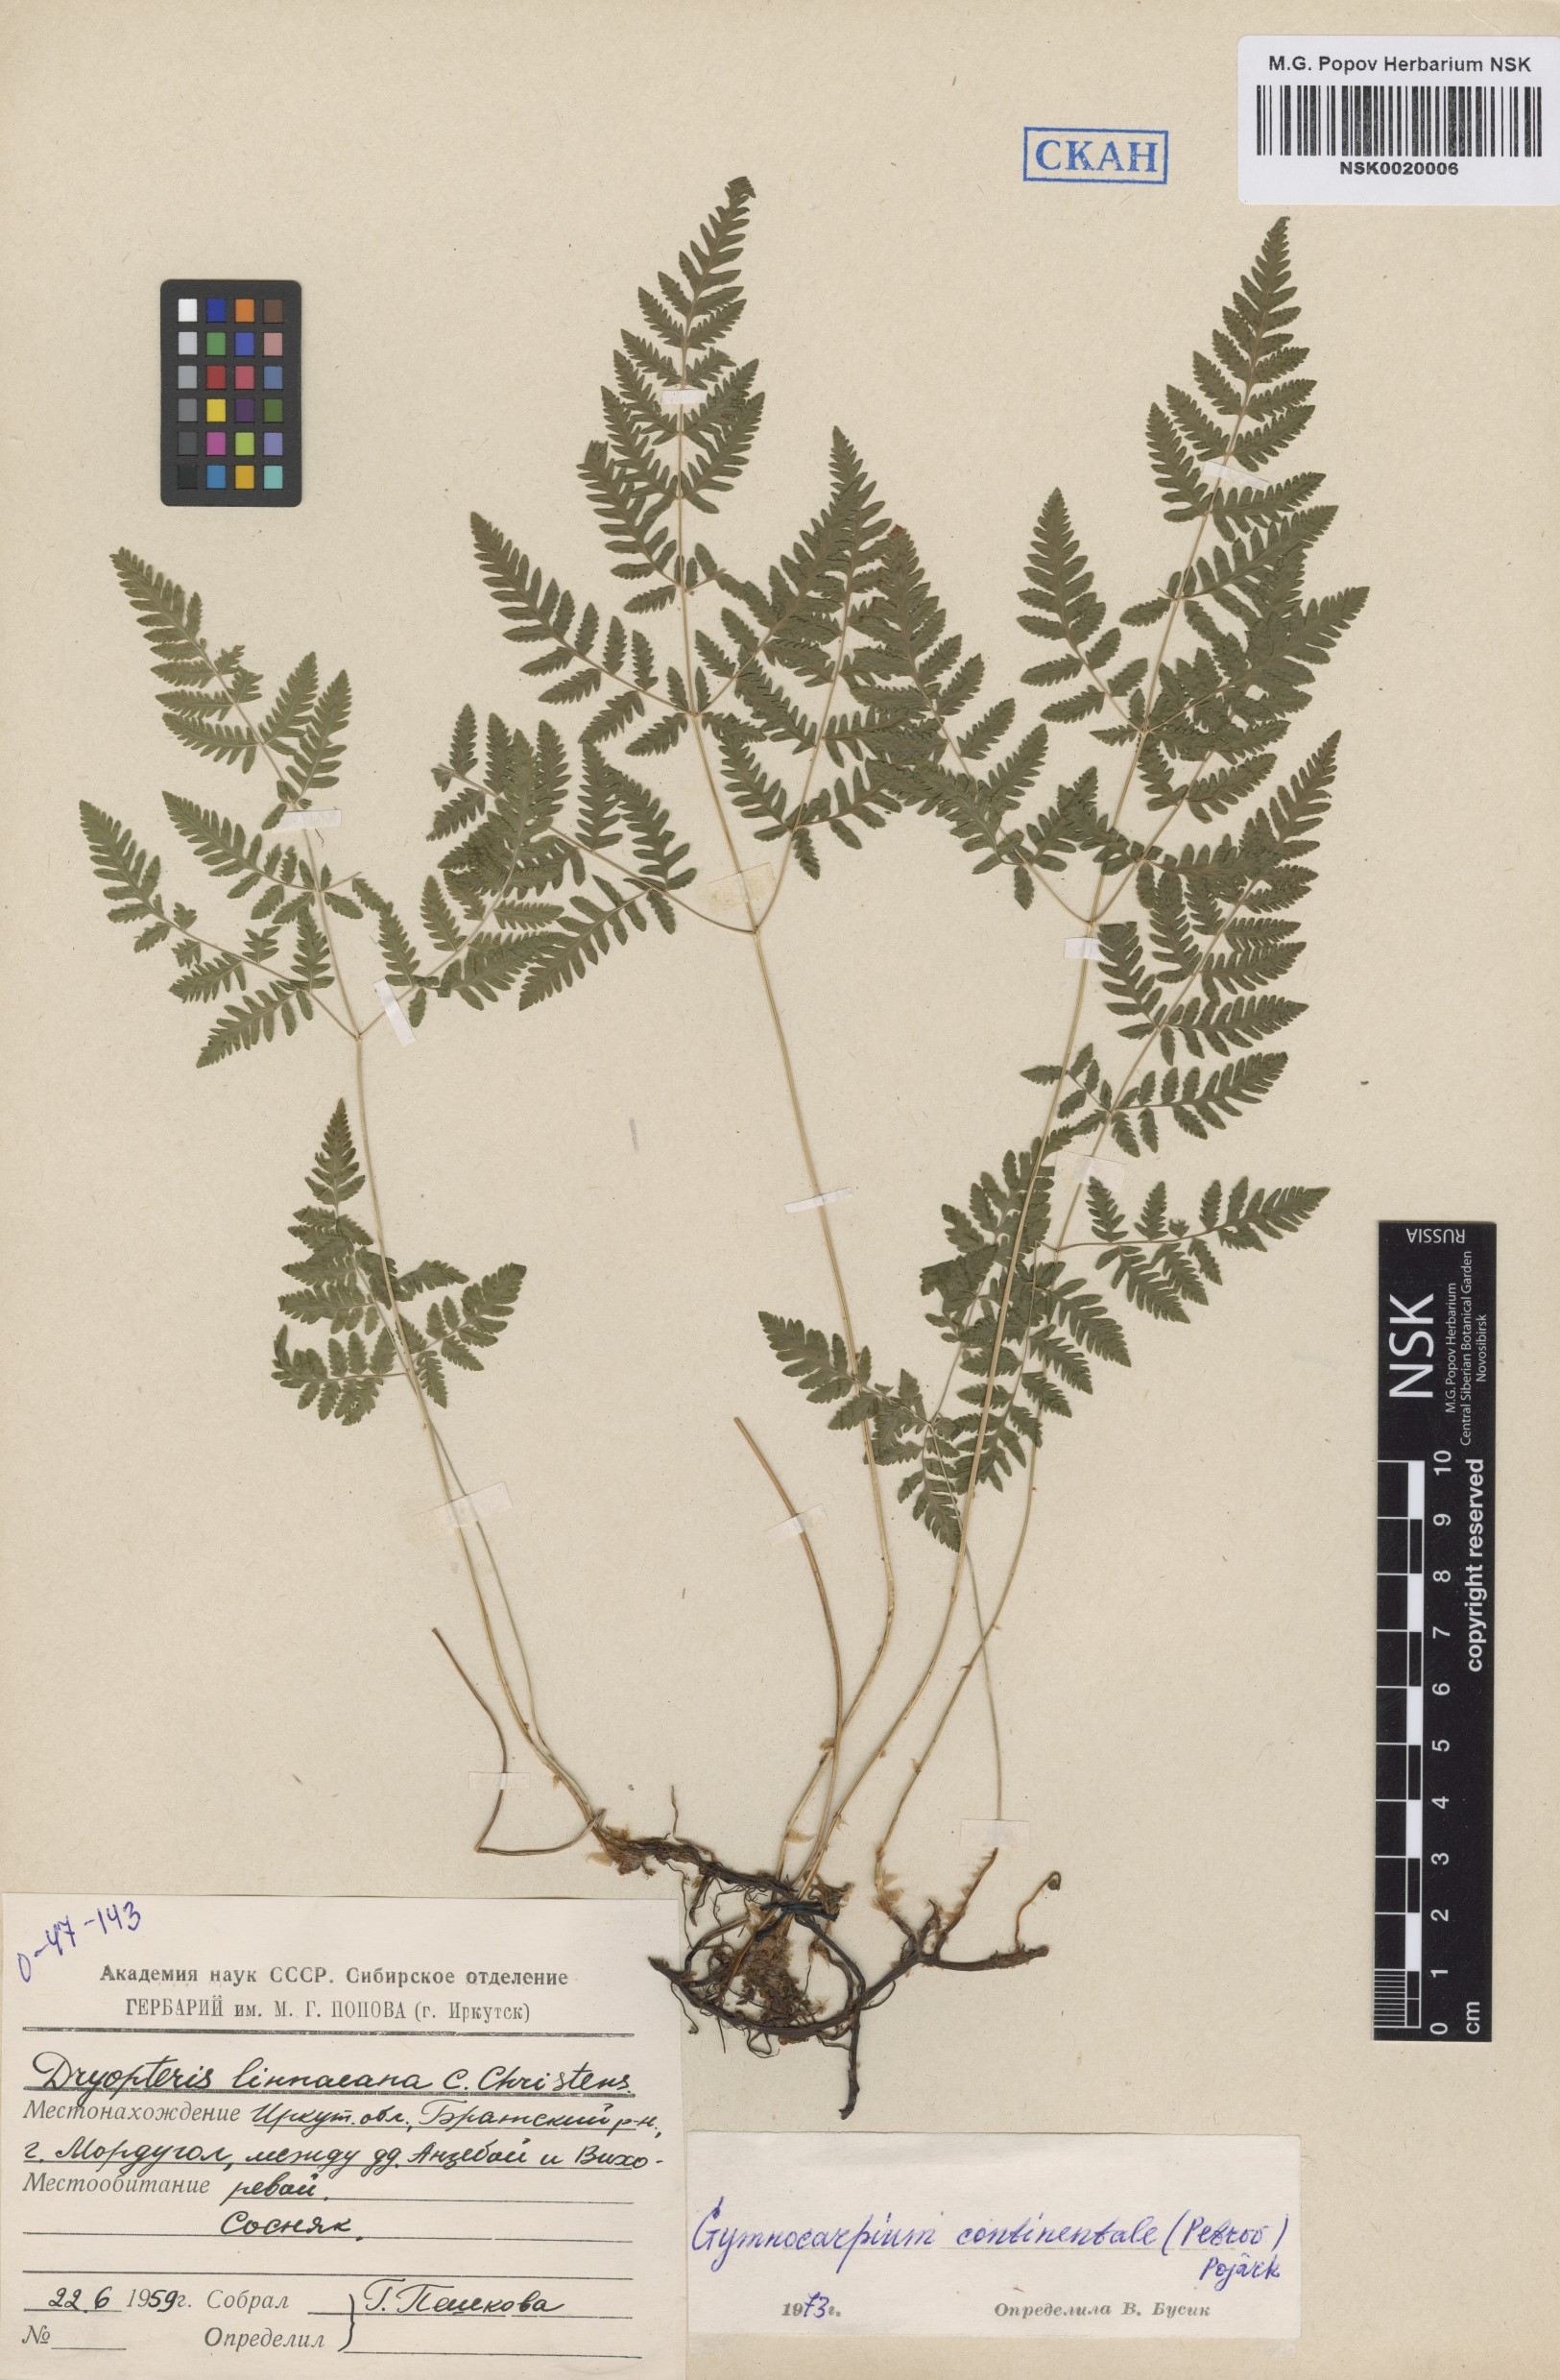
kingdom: Plantae
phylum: Tracheophyta
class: Polypodiopsida
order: Polypodiales
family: Cystopteridaceae
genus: Gymnocarpium
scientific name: Gymnocarpium continentale
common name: Asian oak fern
